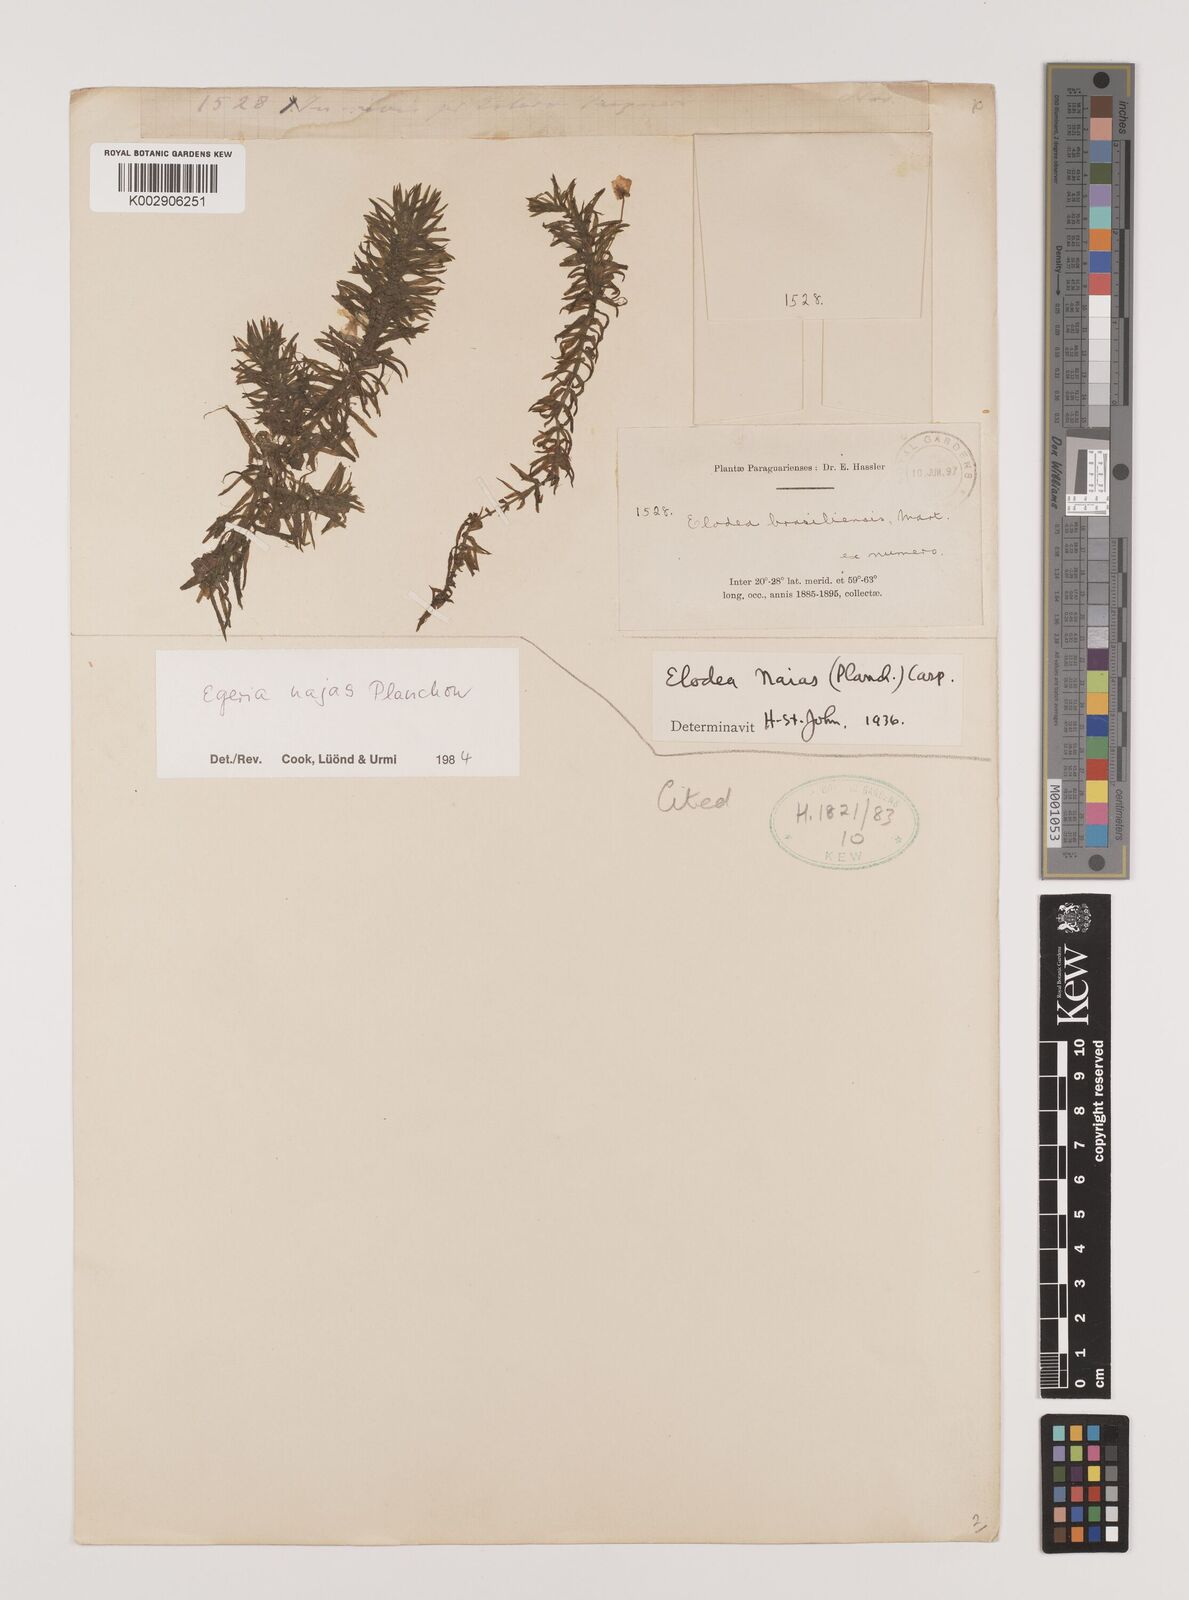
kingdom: Plantae
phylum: Tracheophyta
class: Liliopsida
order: Alismatales
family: Hydrocharitaceae
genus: Elodea
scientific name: Elodea najas
